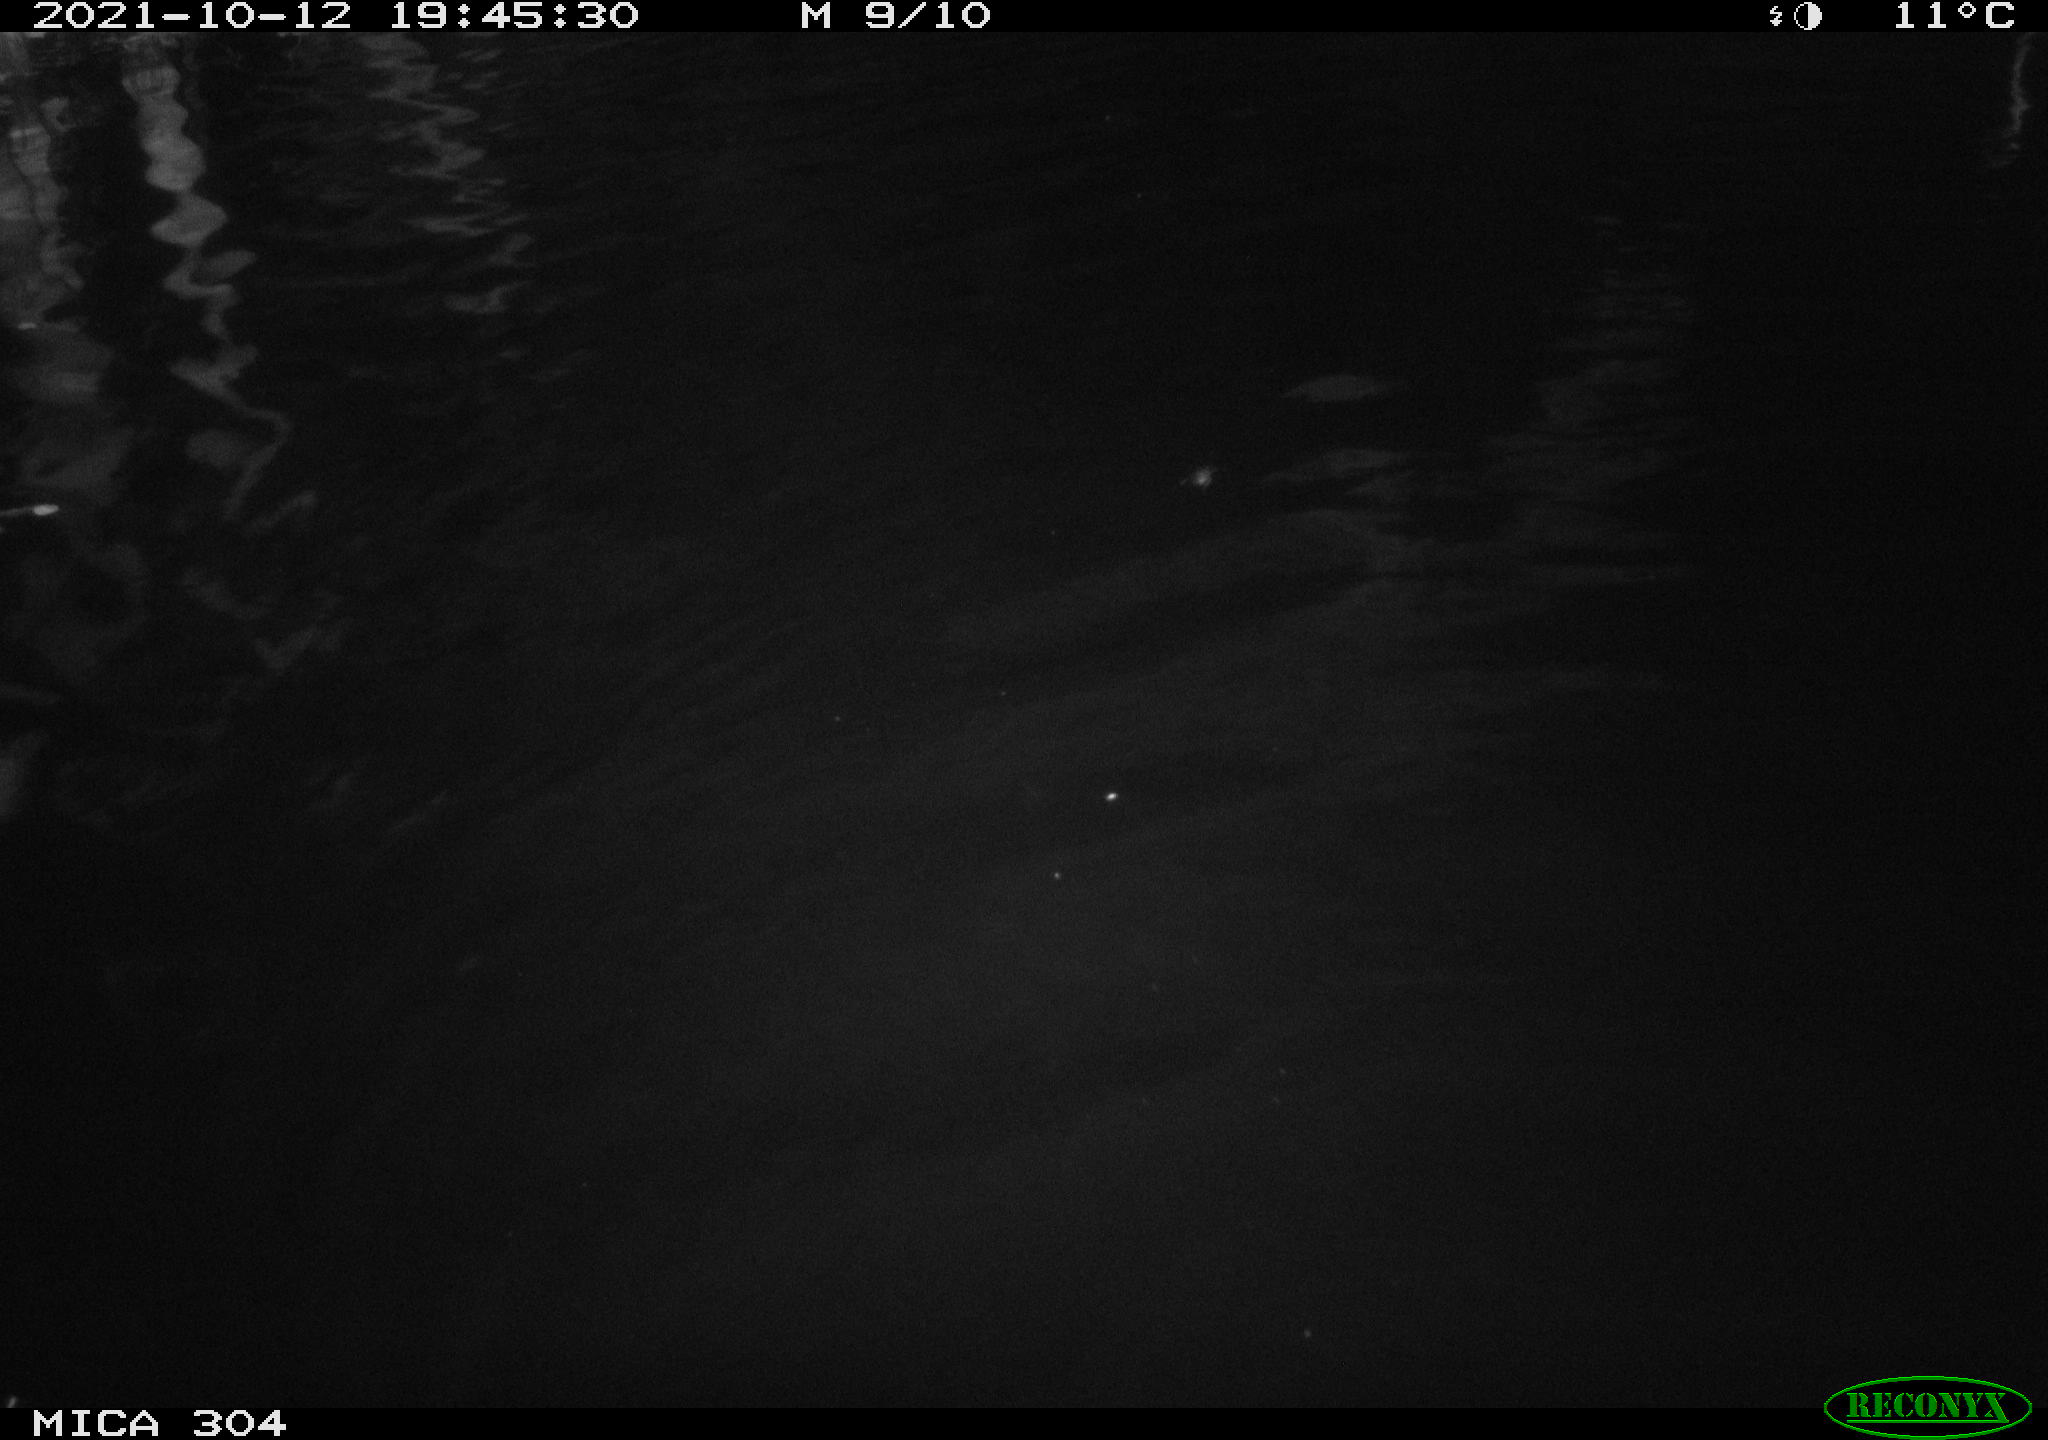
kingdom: Animalia
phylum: Chordata
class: Mammalia
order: Rodentia
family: Cricetidae
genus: Ondatra
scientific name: Ondatra zibethicus
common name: Muskrat
